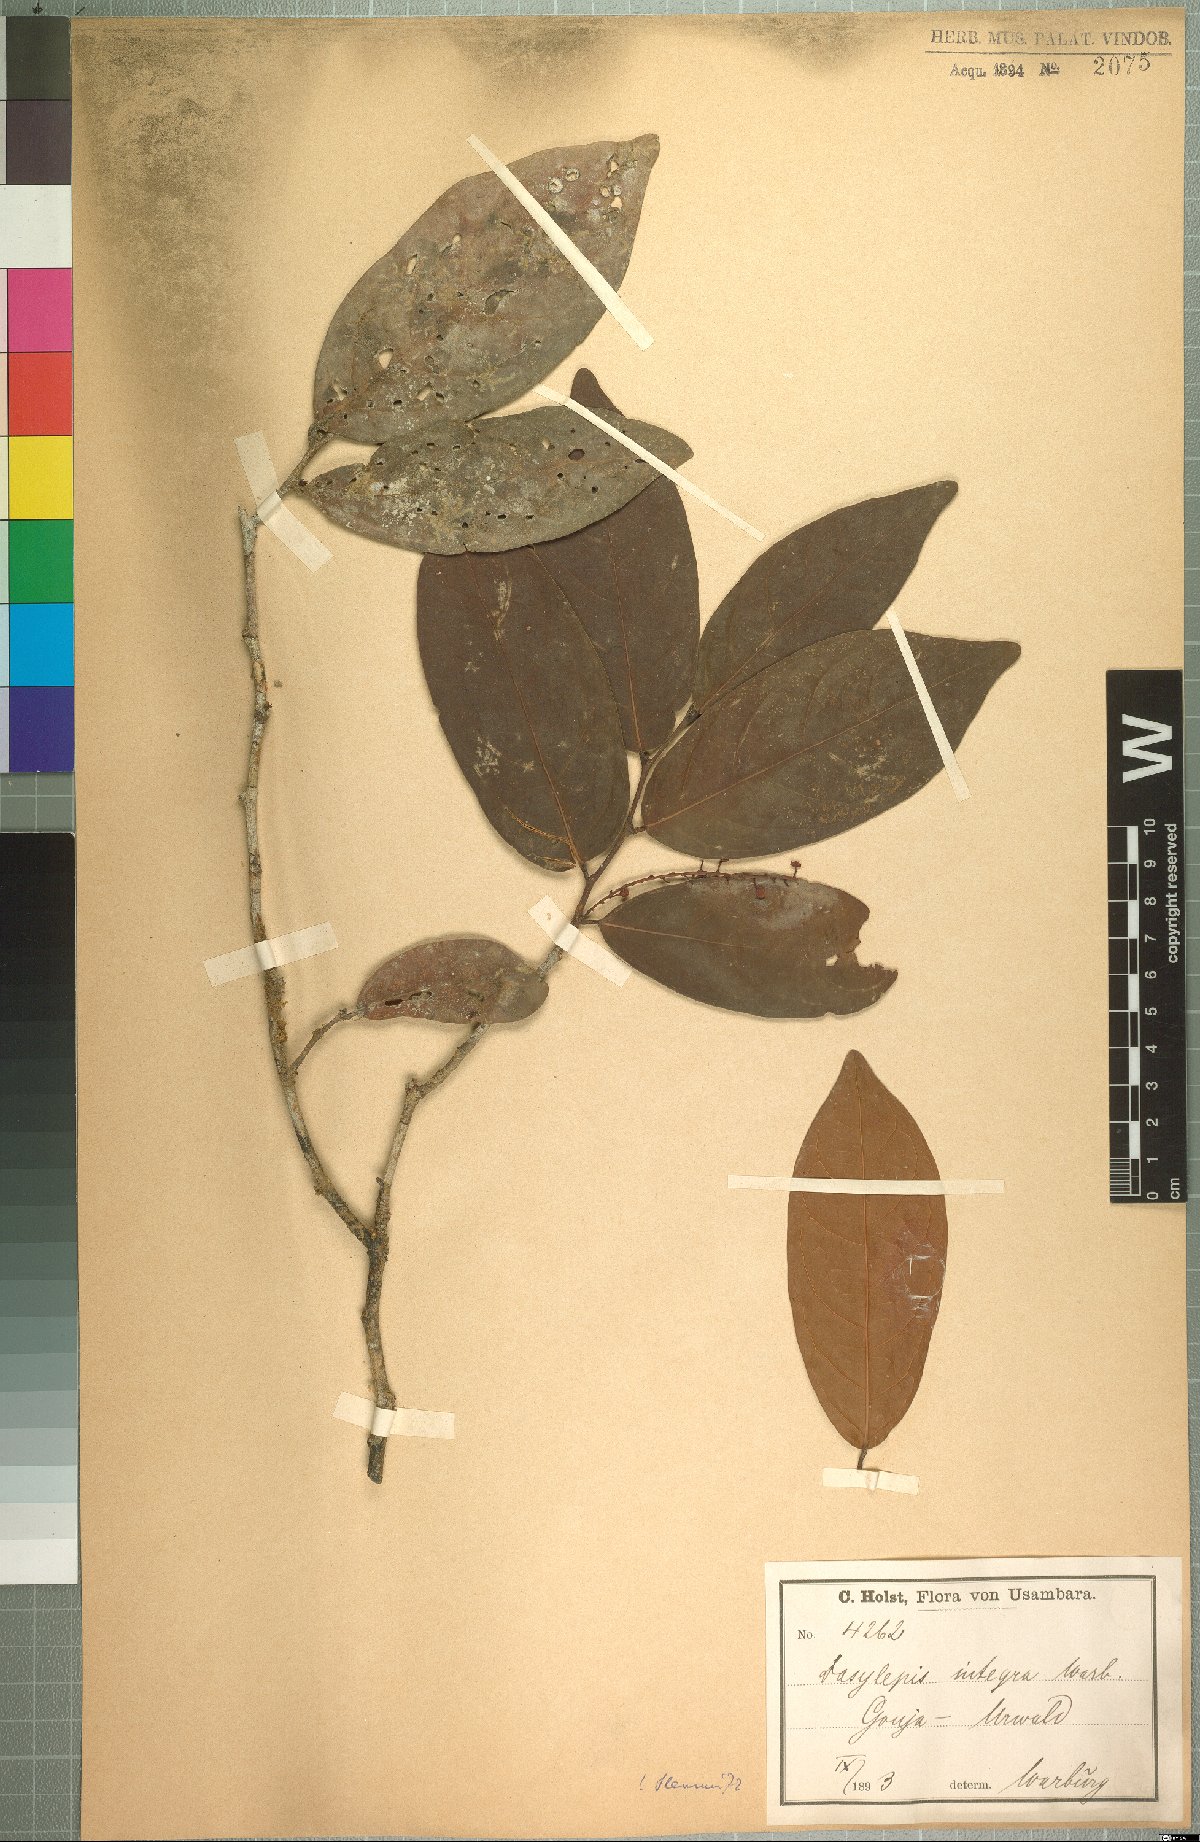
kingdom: Plantae
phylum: Tracheophyta
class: Magnoliopsida
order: Malpighiales
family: Achariaceae
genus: Dasylepis
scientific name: Dasylepis integra
